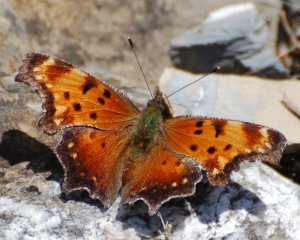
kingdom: Animalia
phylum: Arthropoda
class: Insecta
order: Lepidoptera
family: Nymphalidae
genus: Polygonia
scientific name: Polygonia progne
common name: Gray Comma
